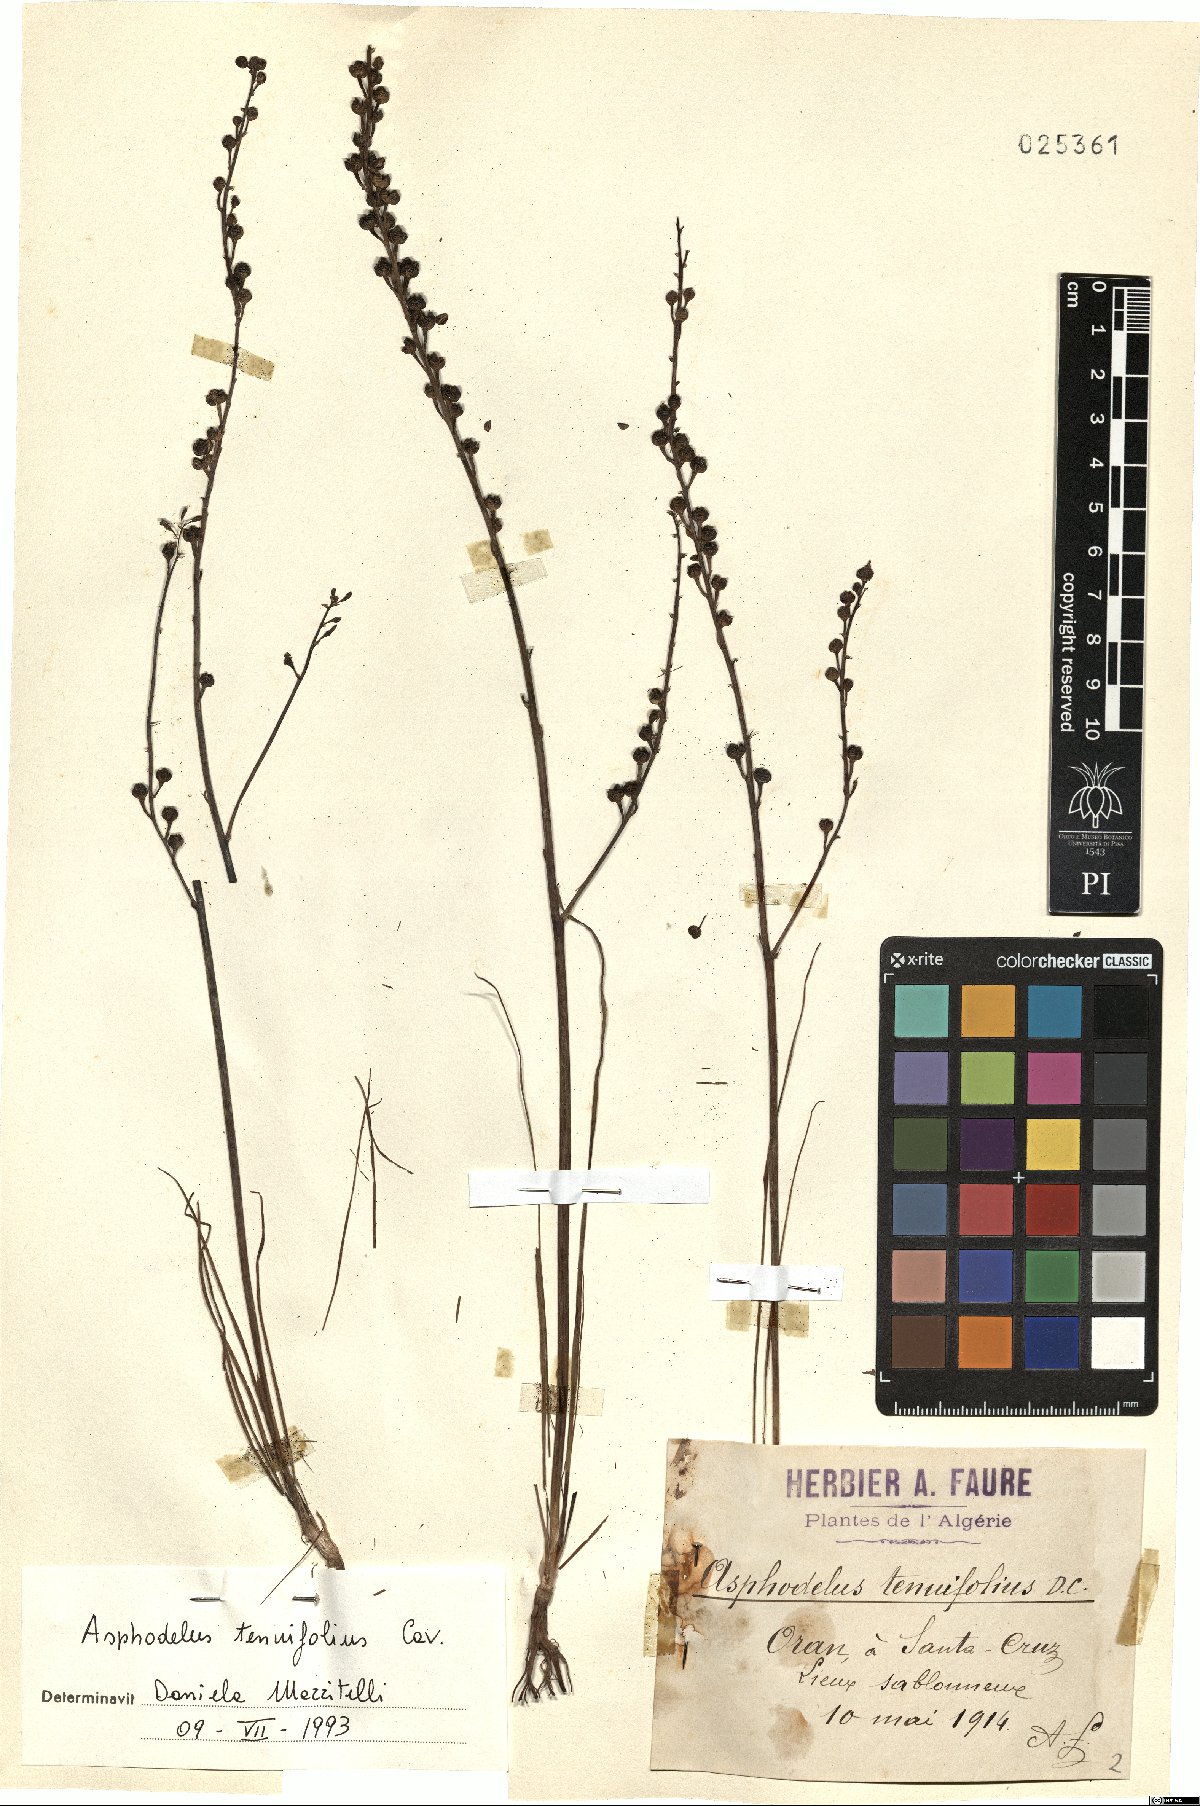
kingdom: Plantae
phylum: Tracheophyta
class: Liliopsida
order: Asparagales
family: Asphodelaceae
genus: Asphodelus
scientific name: Asphodelus tenuifolius
